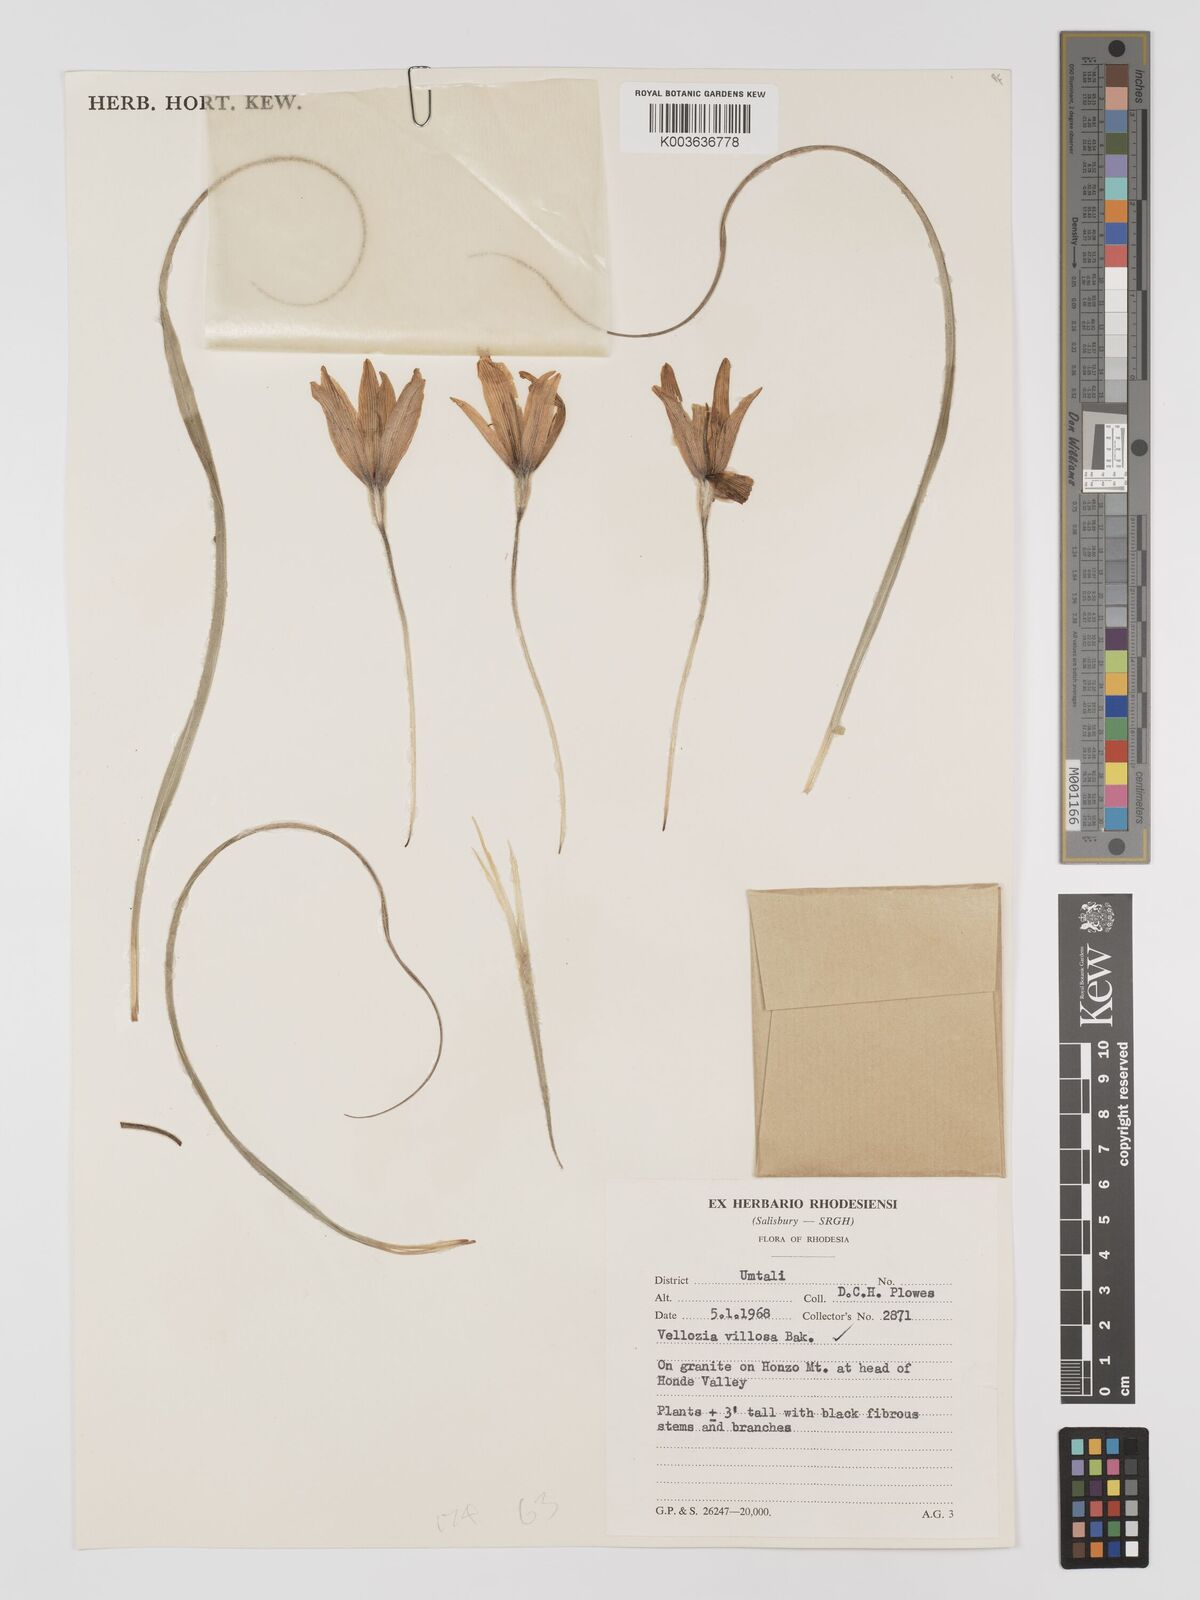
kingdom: Plantae
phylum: Tracheophyta
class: Liliopsida
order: Pandanales
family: Velloziaceae
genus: Xerophyta
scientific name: Xerophyta villosa
